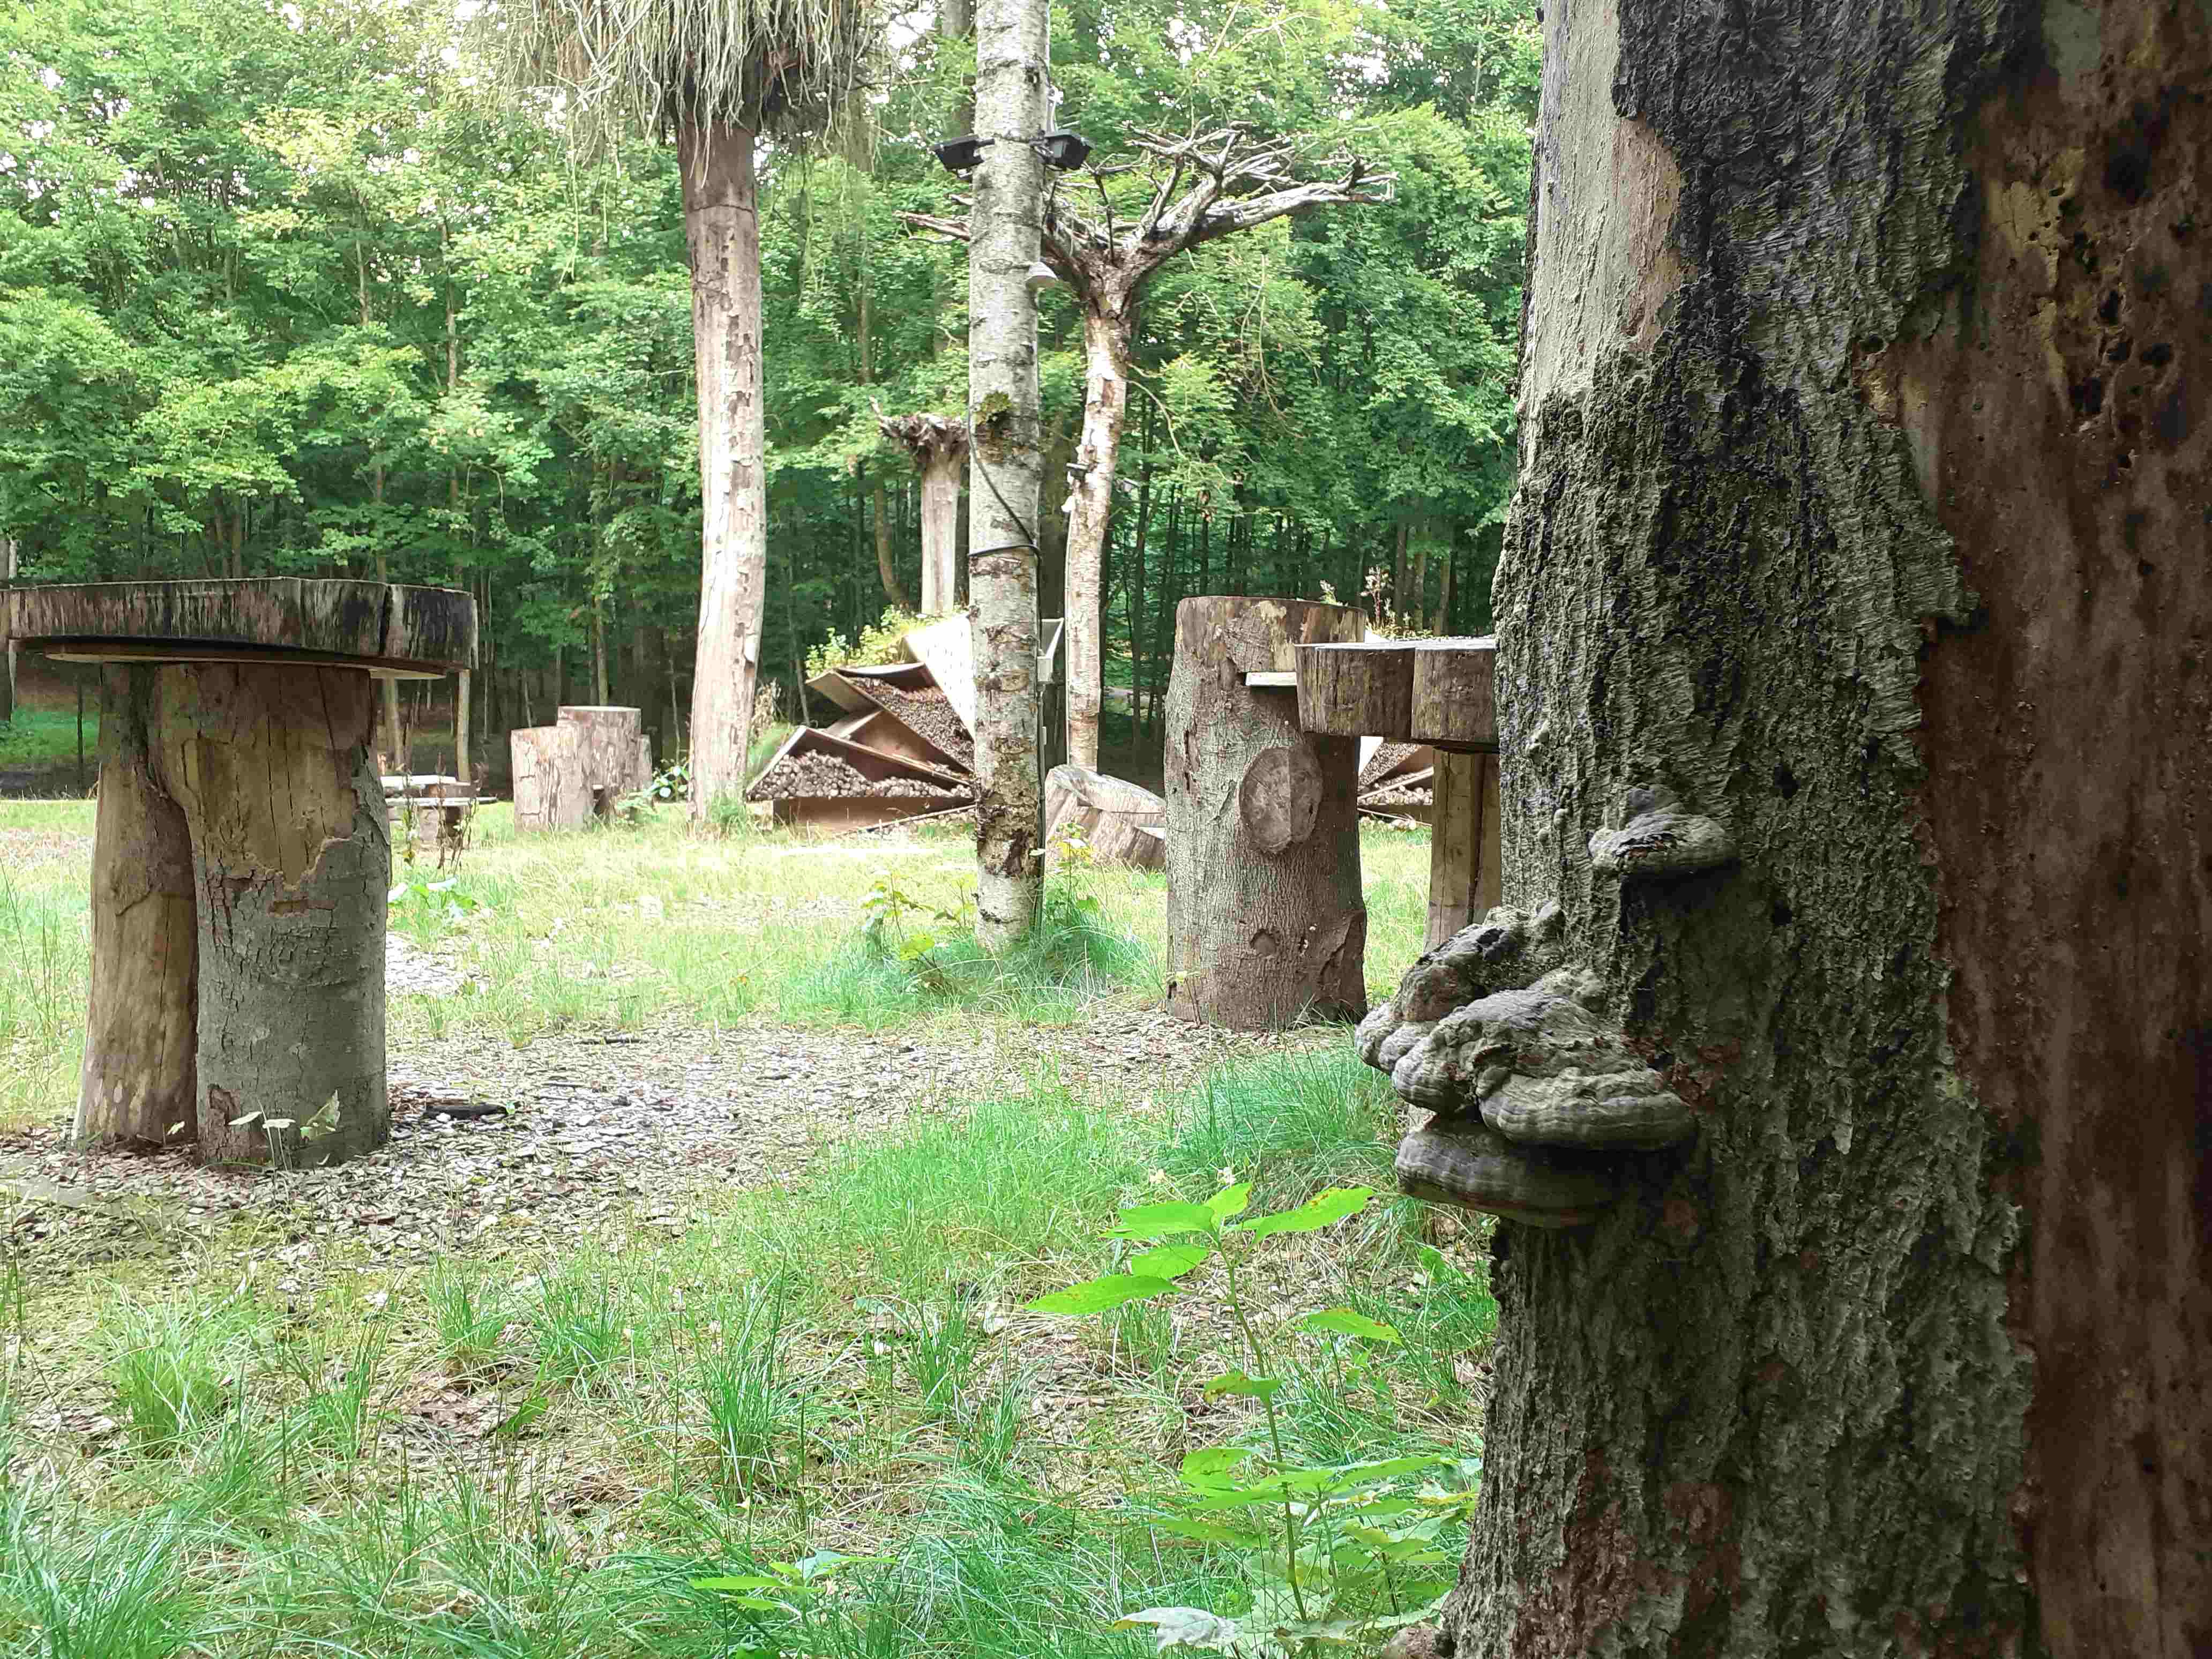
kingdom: Fungi
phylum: Basidiomycota
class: Agaricomycetes
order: Polyporales
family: Polyporaceae
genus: Fomes
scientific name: Fomes fomentarius
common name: tøndersvamp
